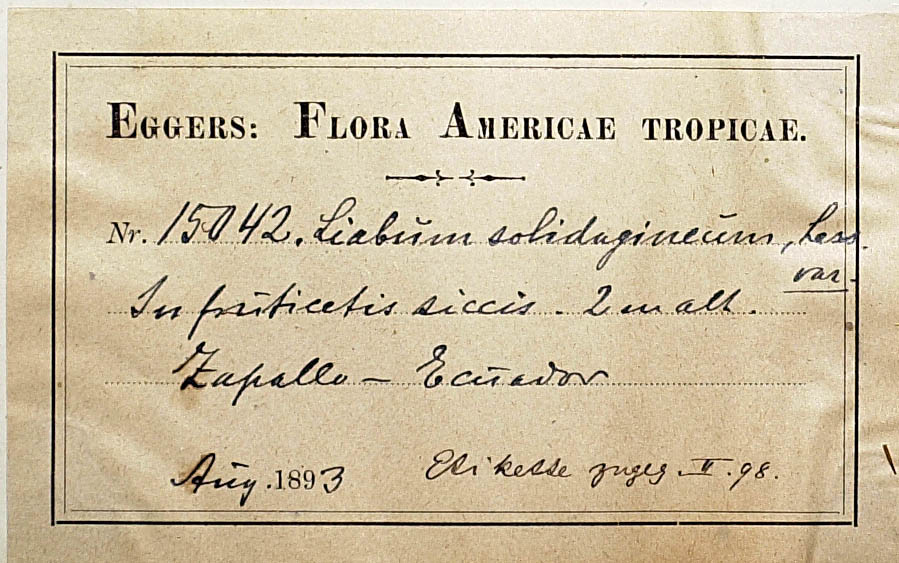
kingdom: Plantae
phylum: Tracheophyta
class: Magnoliopsida
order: Asterales
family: Asteraceae
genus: Liabum
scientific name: Liabum eggersii
